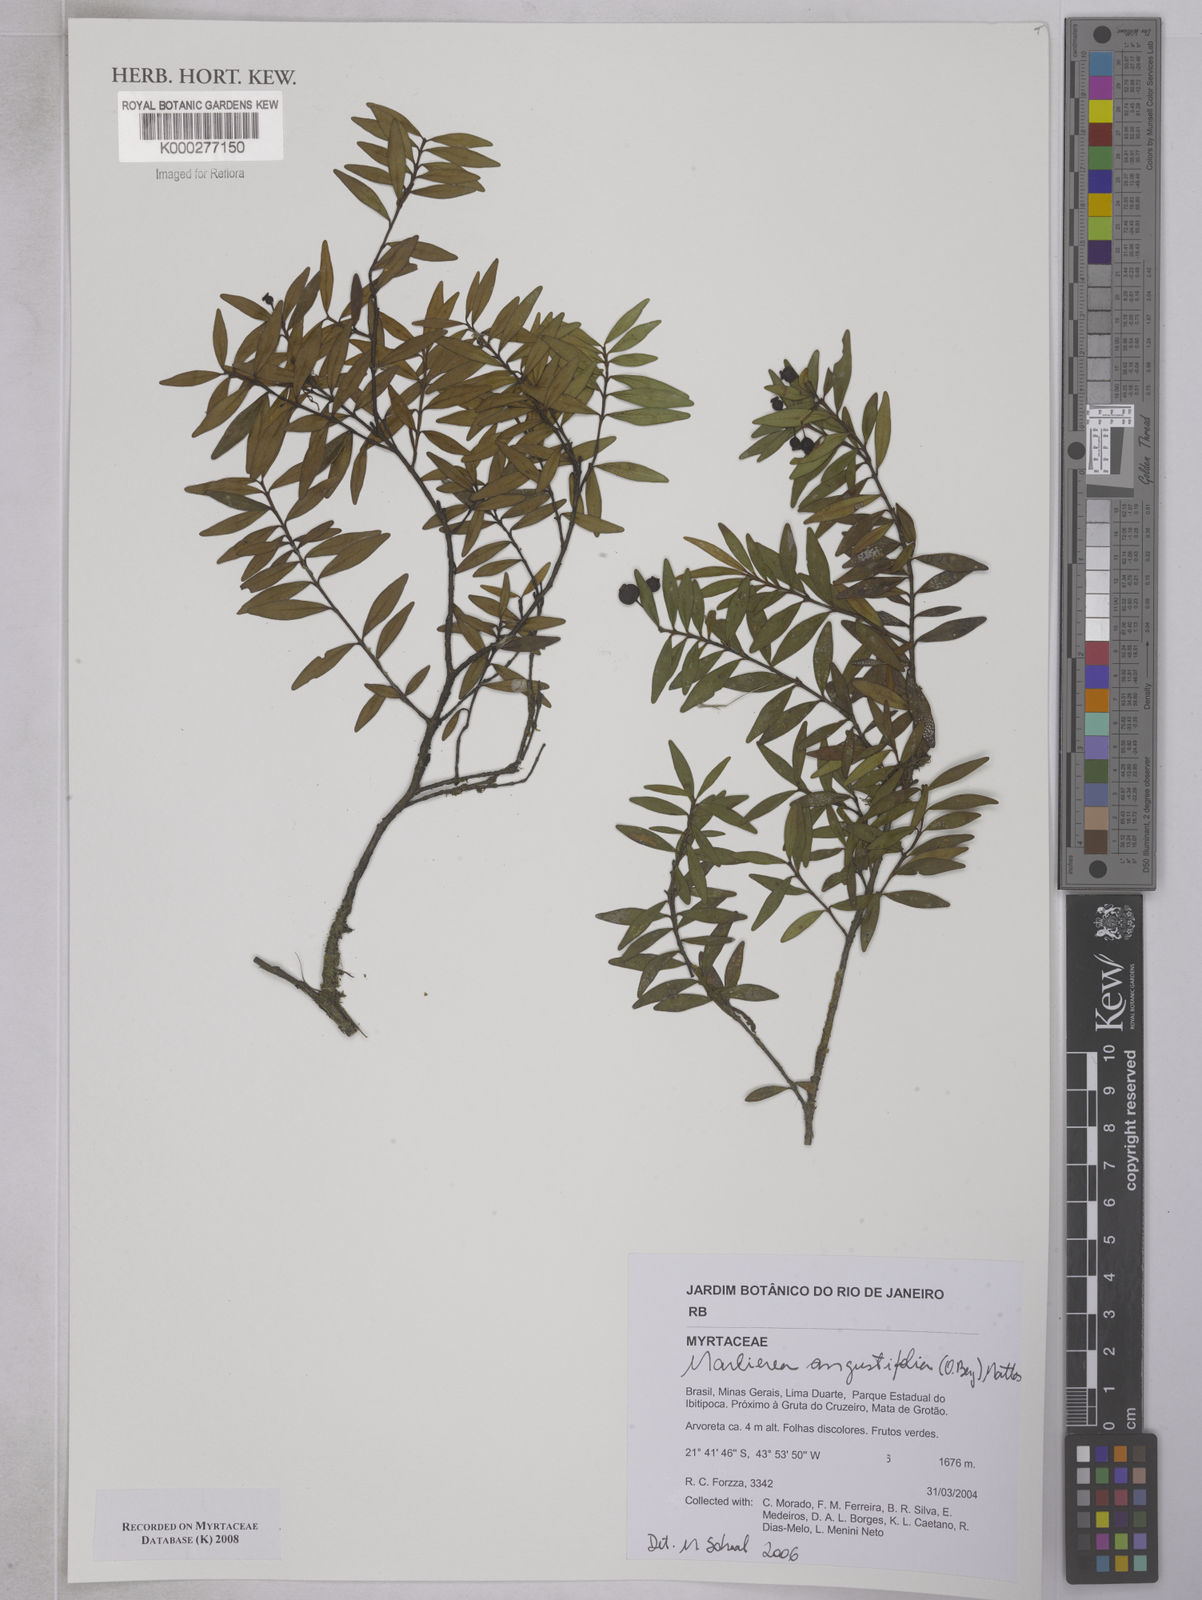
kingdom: Plantae
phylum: Tracheophyta
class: Magnoliopsida
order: Myrtales
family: Myrtaceae
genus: Myrcia
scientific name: Myrcia lenheirensis
